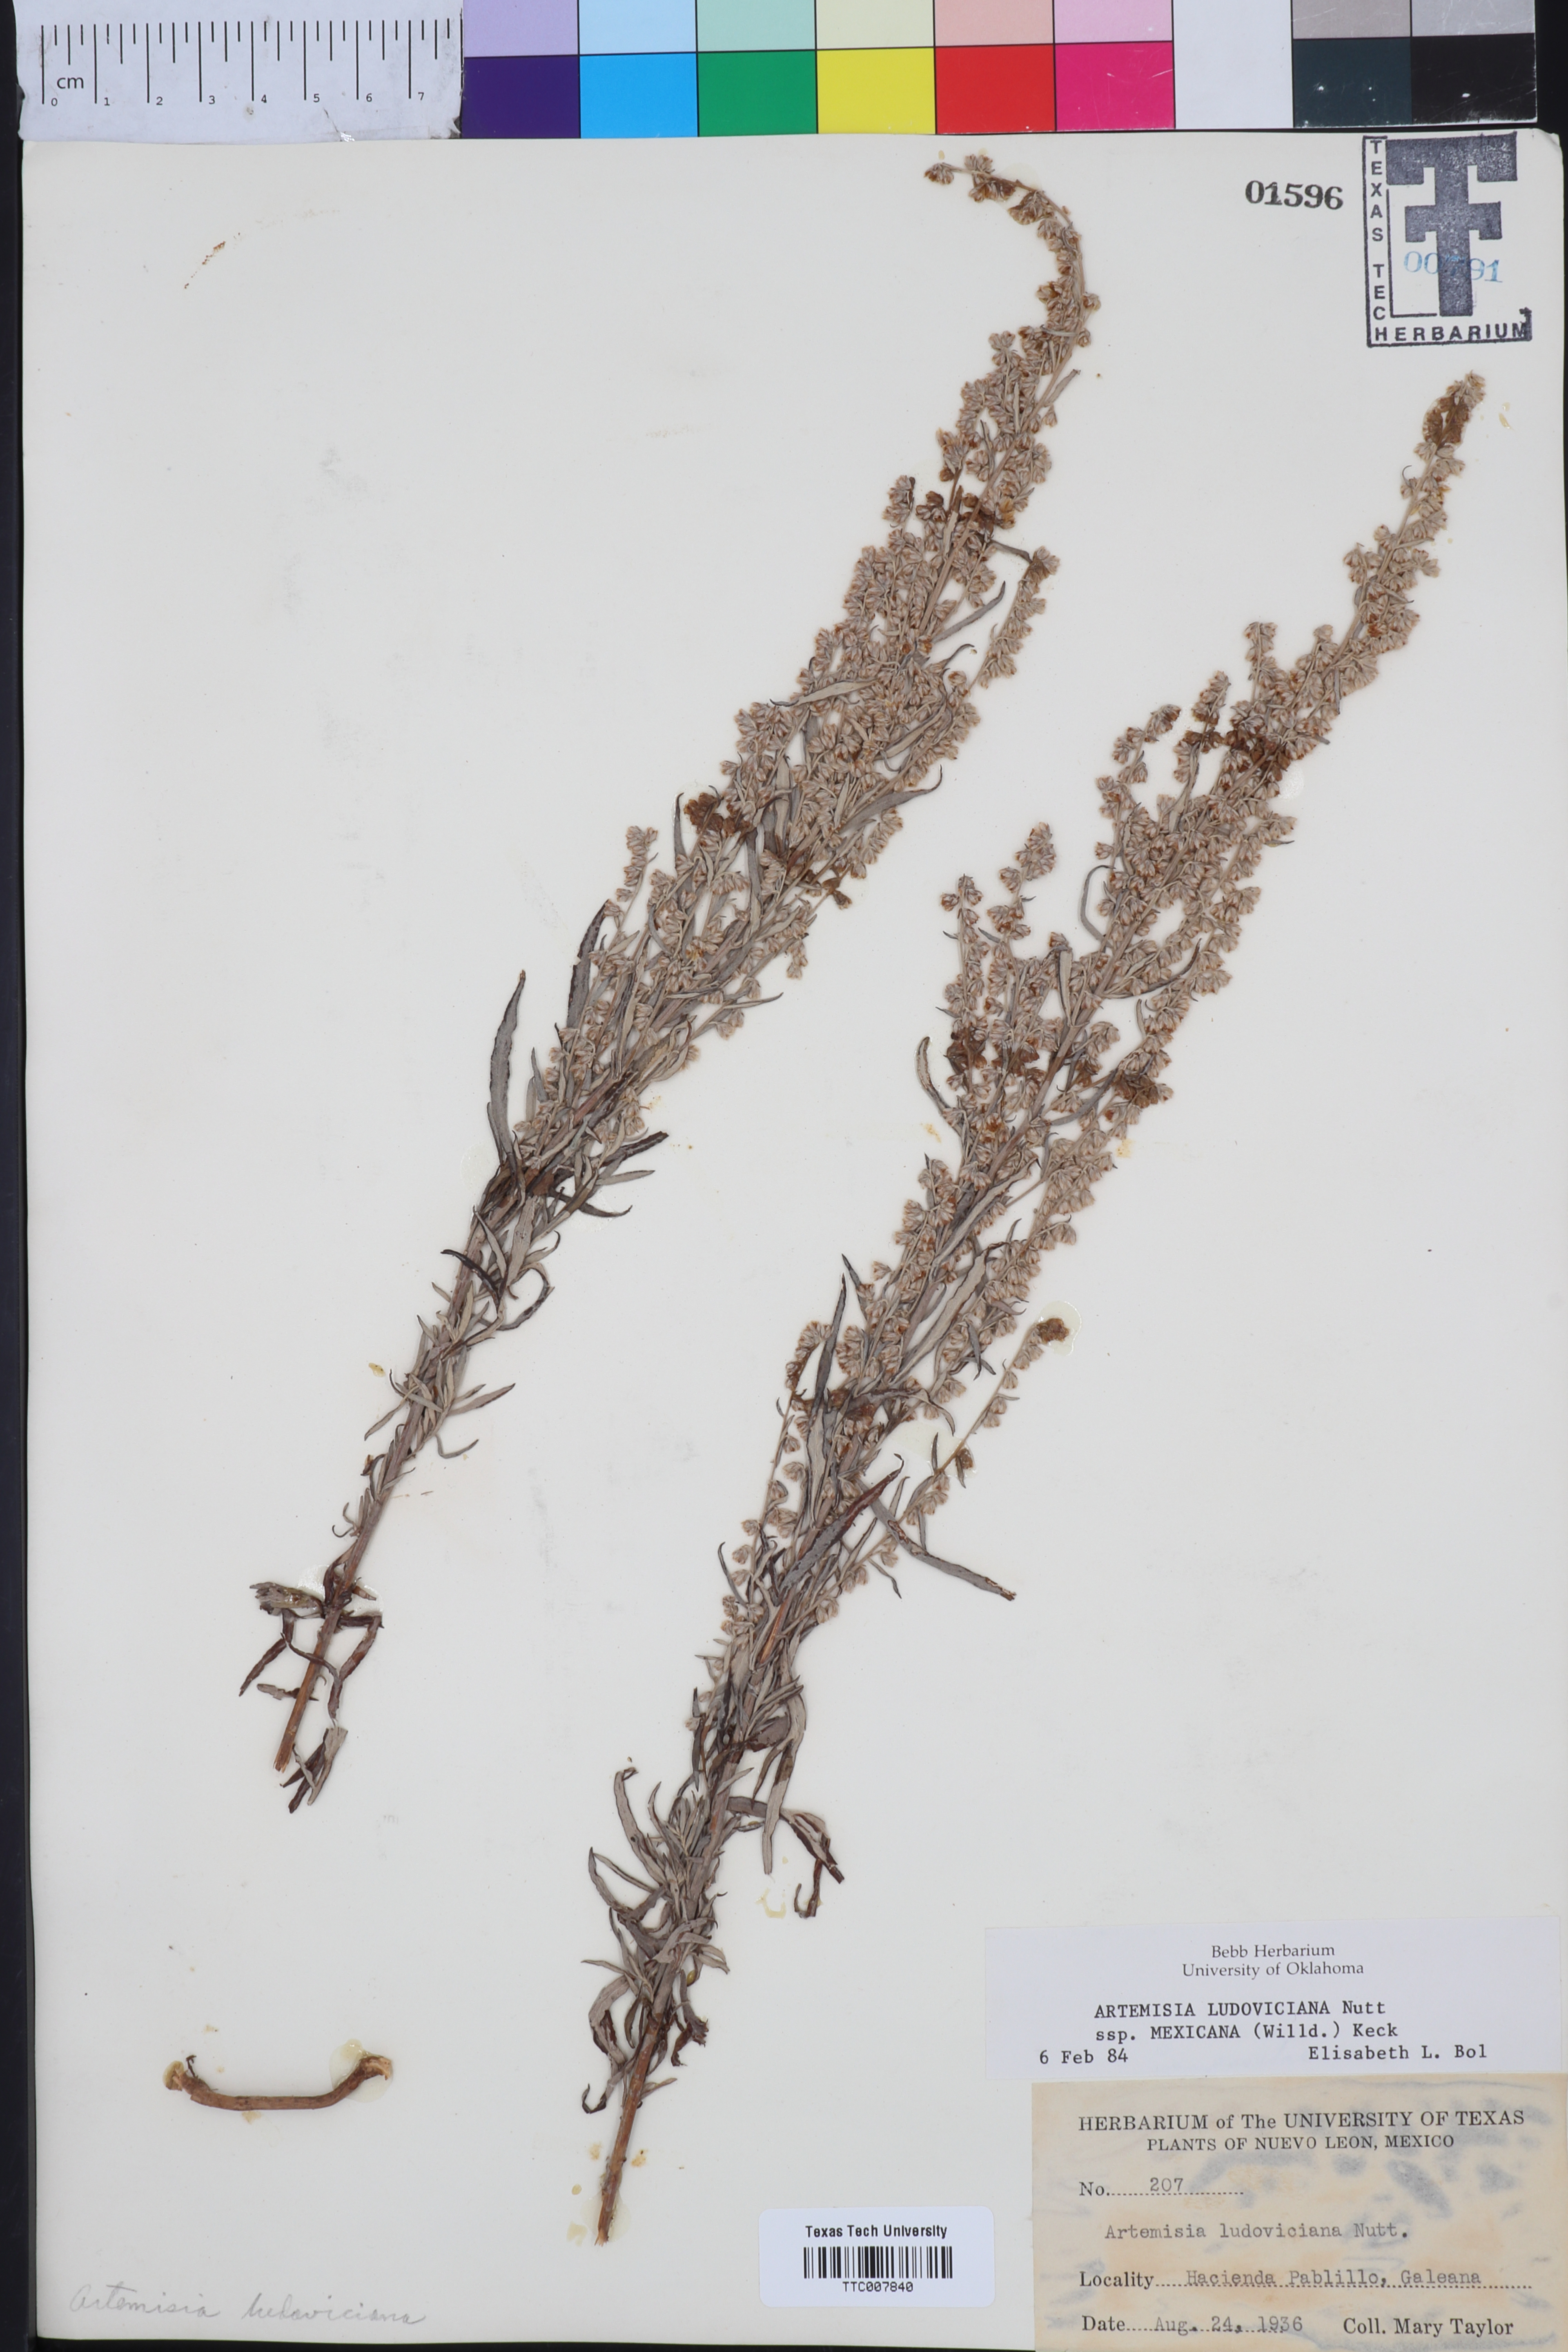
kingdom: Plantae
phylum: Tracheophyta
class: Magnoliopsida
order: Asterales
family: Asteraceae
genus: Artemisia
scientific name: Artemisia ludoviciana
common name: Western mugwort
